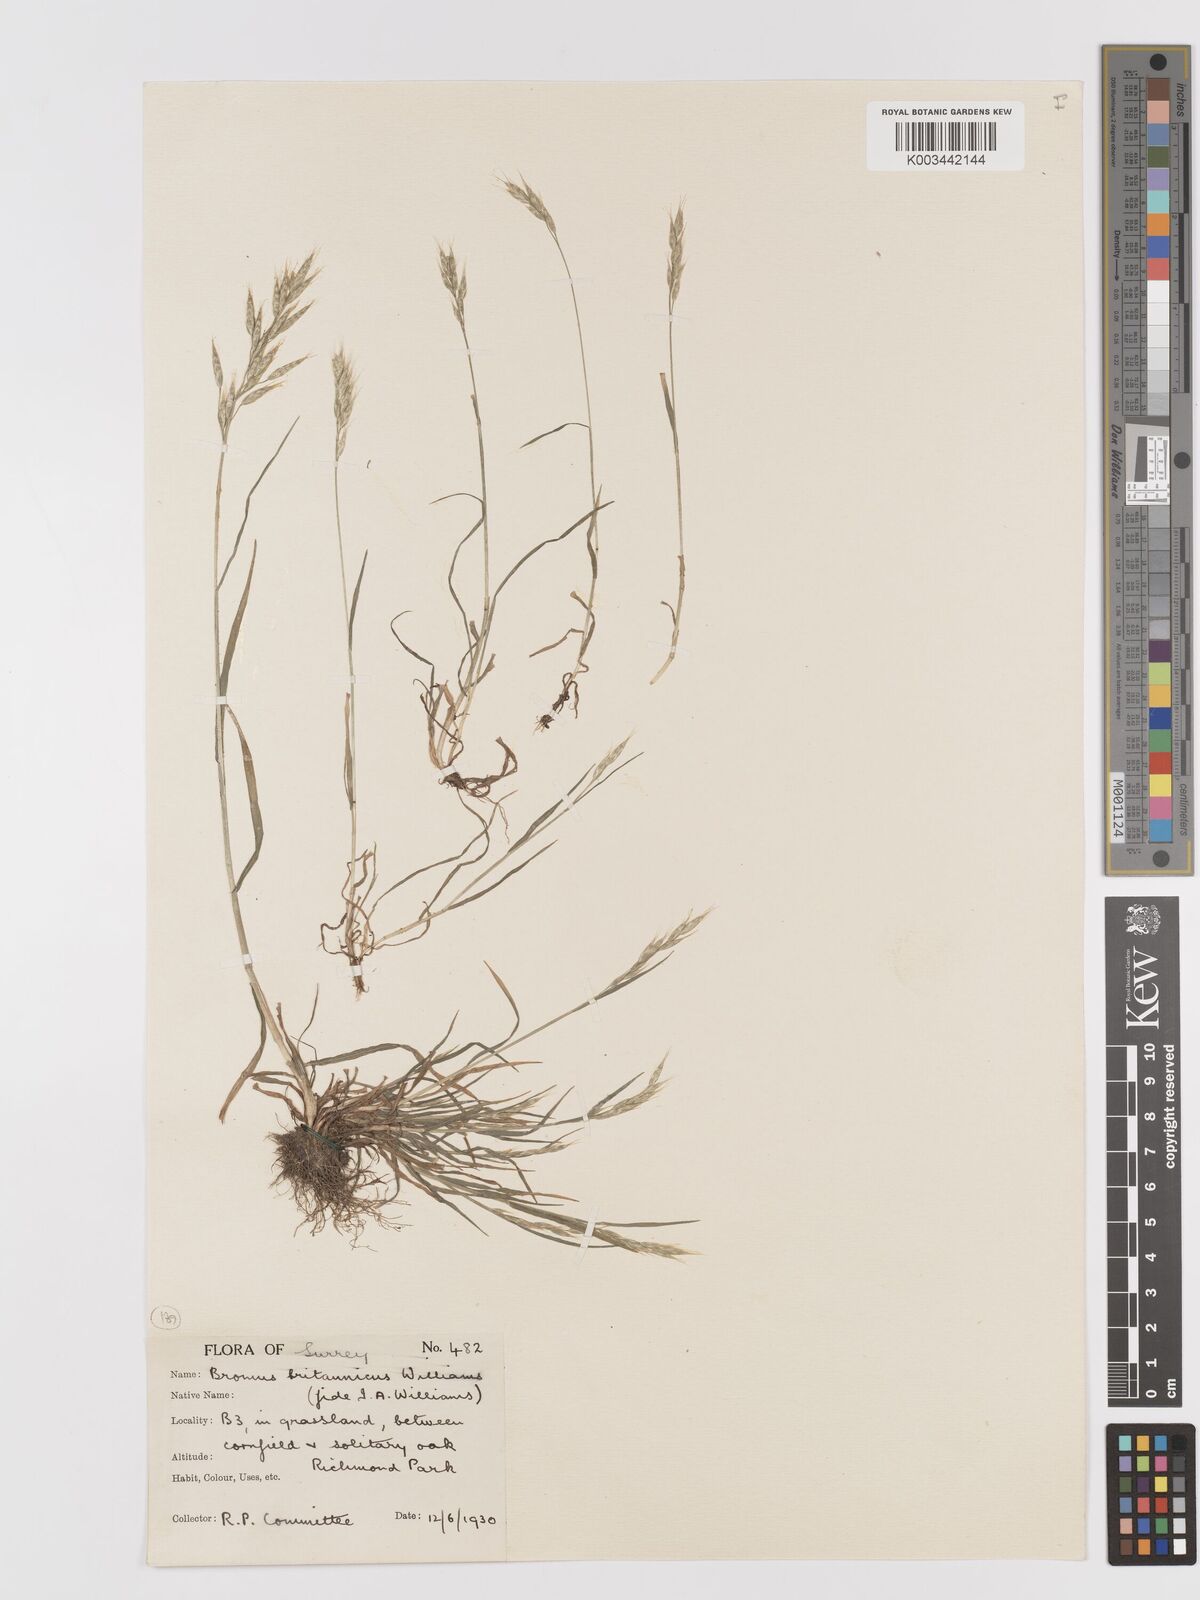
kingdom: Plantae
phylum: Tracheophyta
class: Liliopsida
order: Poales
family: Poaceae
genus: Bromus
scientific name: Bromus lepidus
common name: Slender soft-brome
